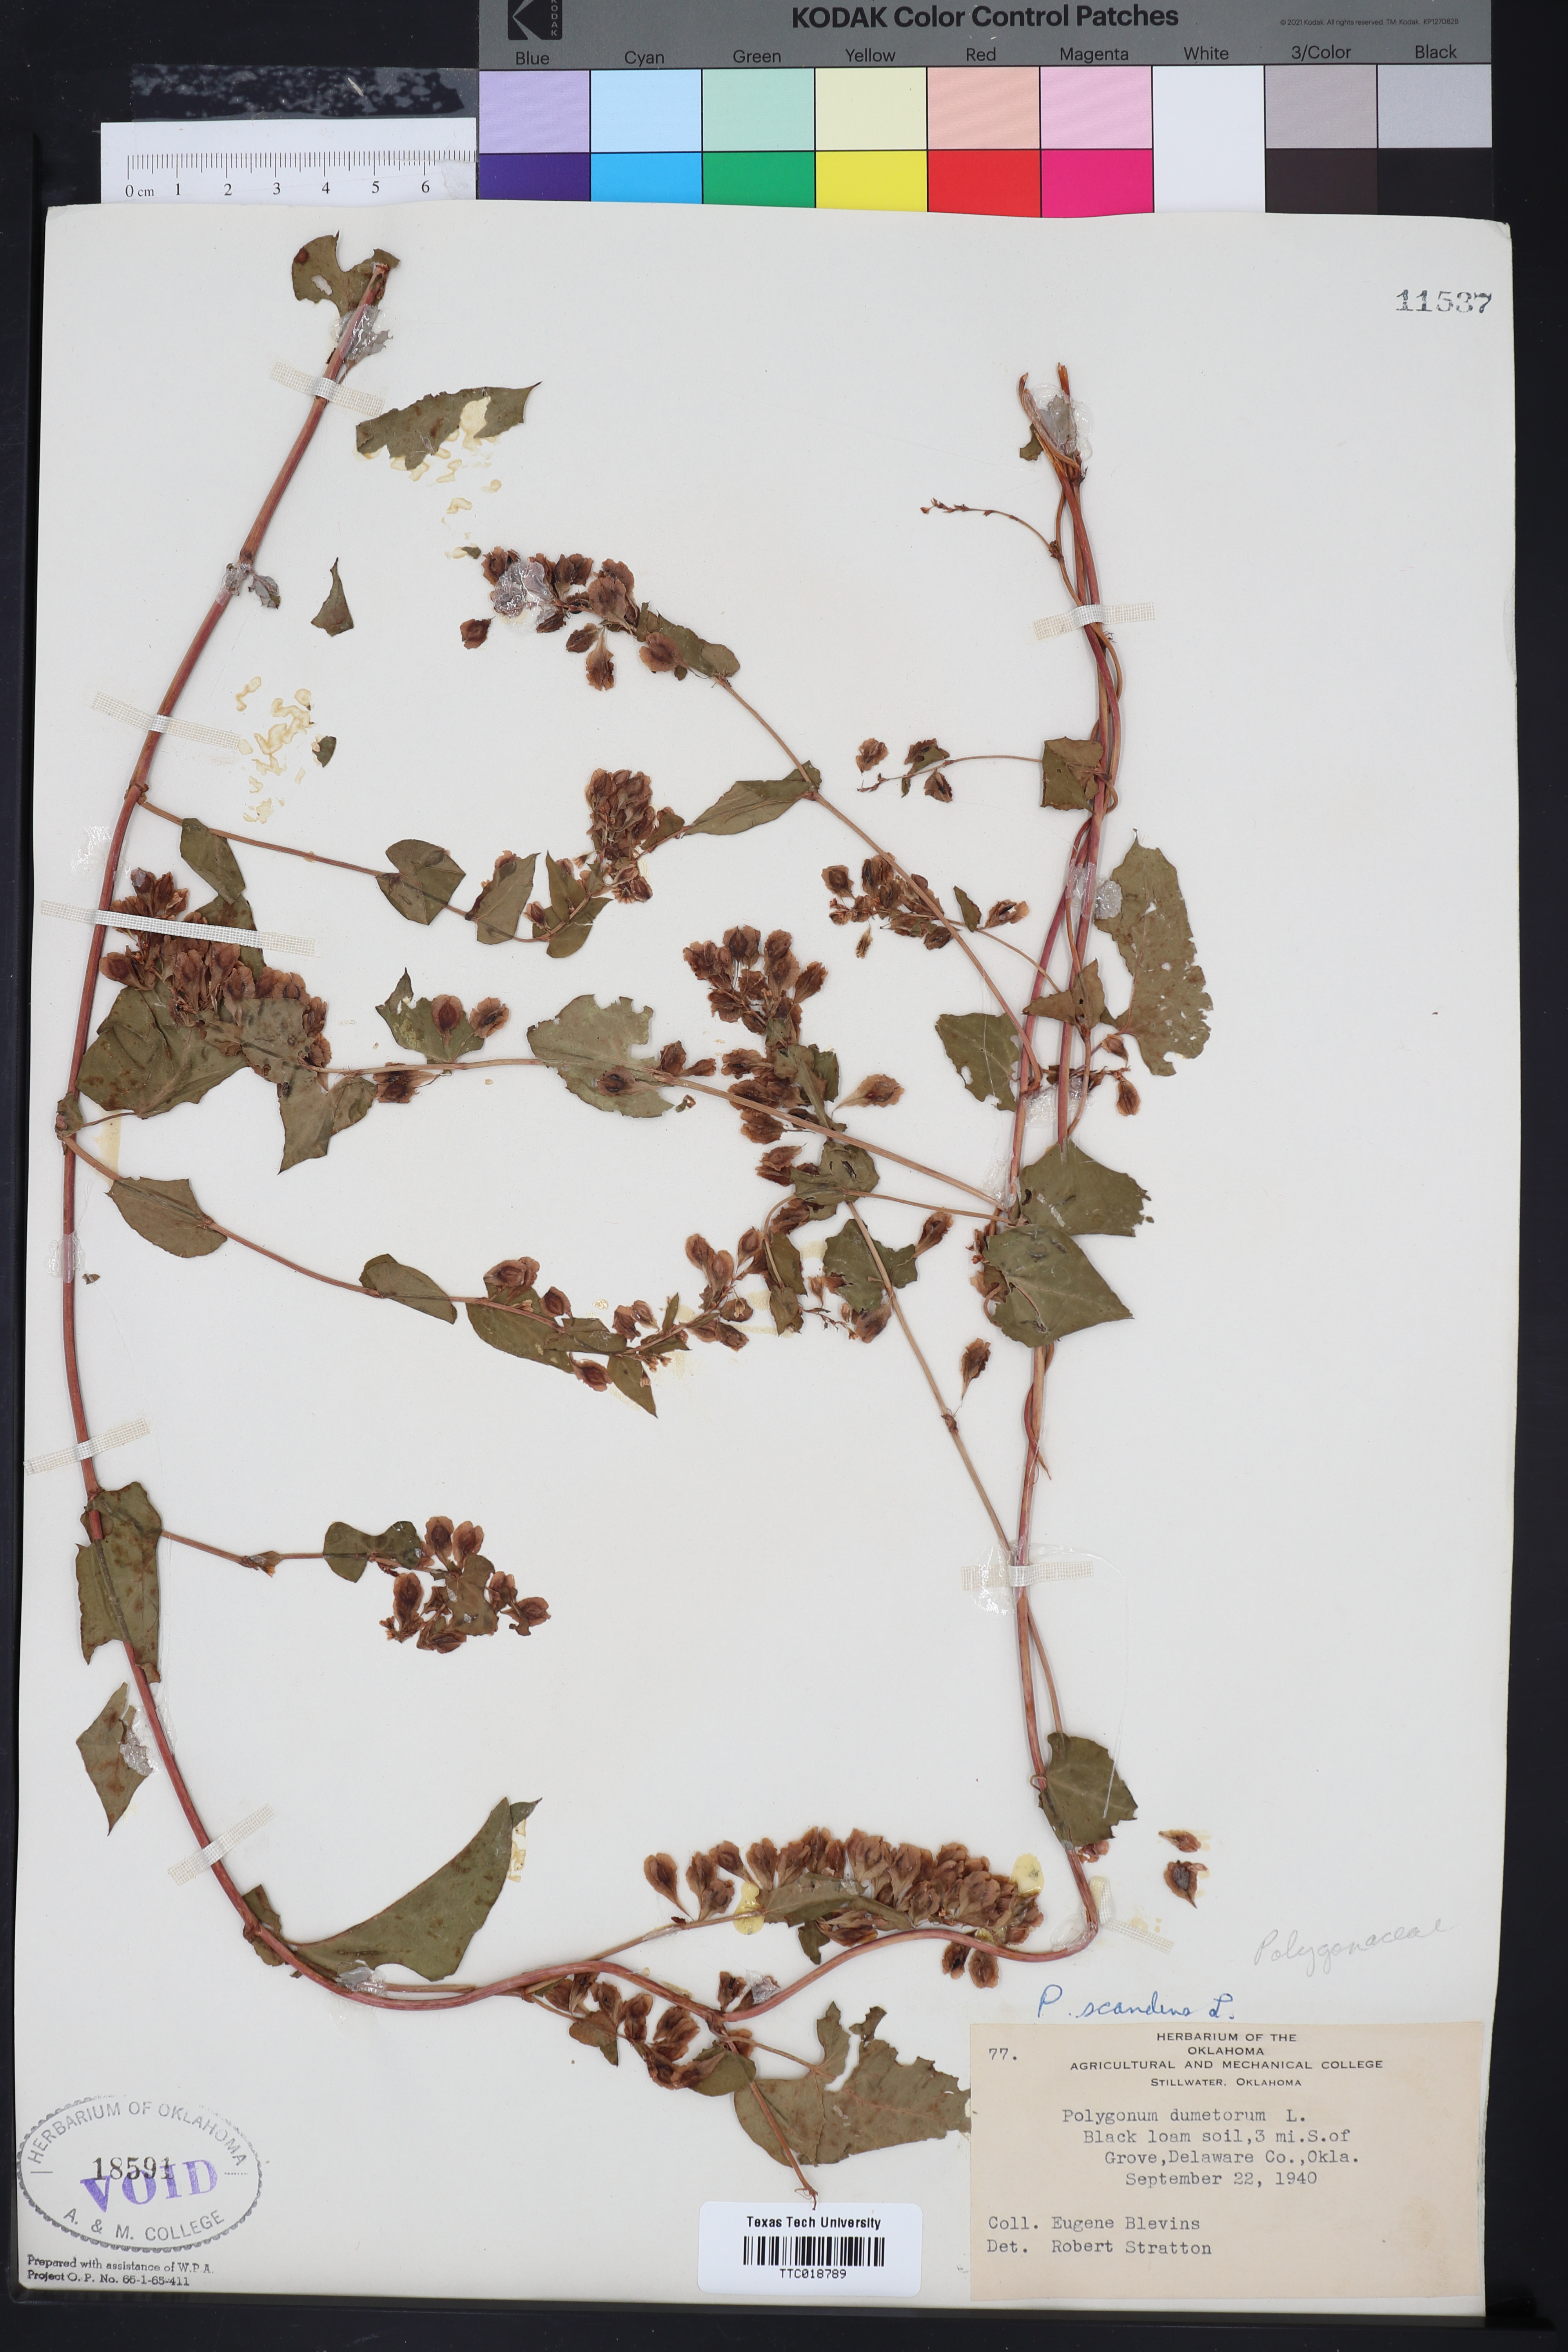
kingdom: Plantae
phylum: Tracheophyta
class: Magnoliopsida
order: Caryophyllales
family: Polygonaceae
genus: Fallopia
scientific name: Fallopia scandens
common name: Climbing false buckwheat
